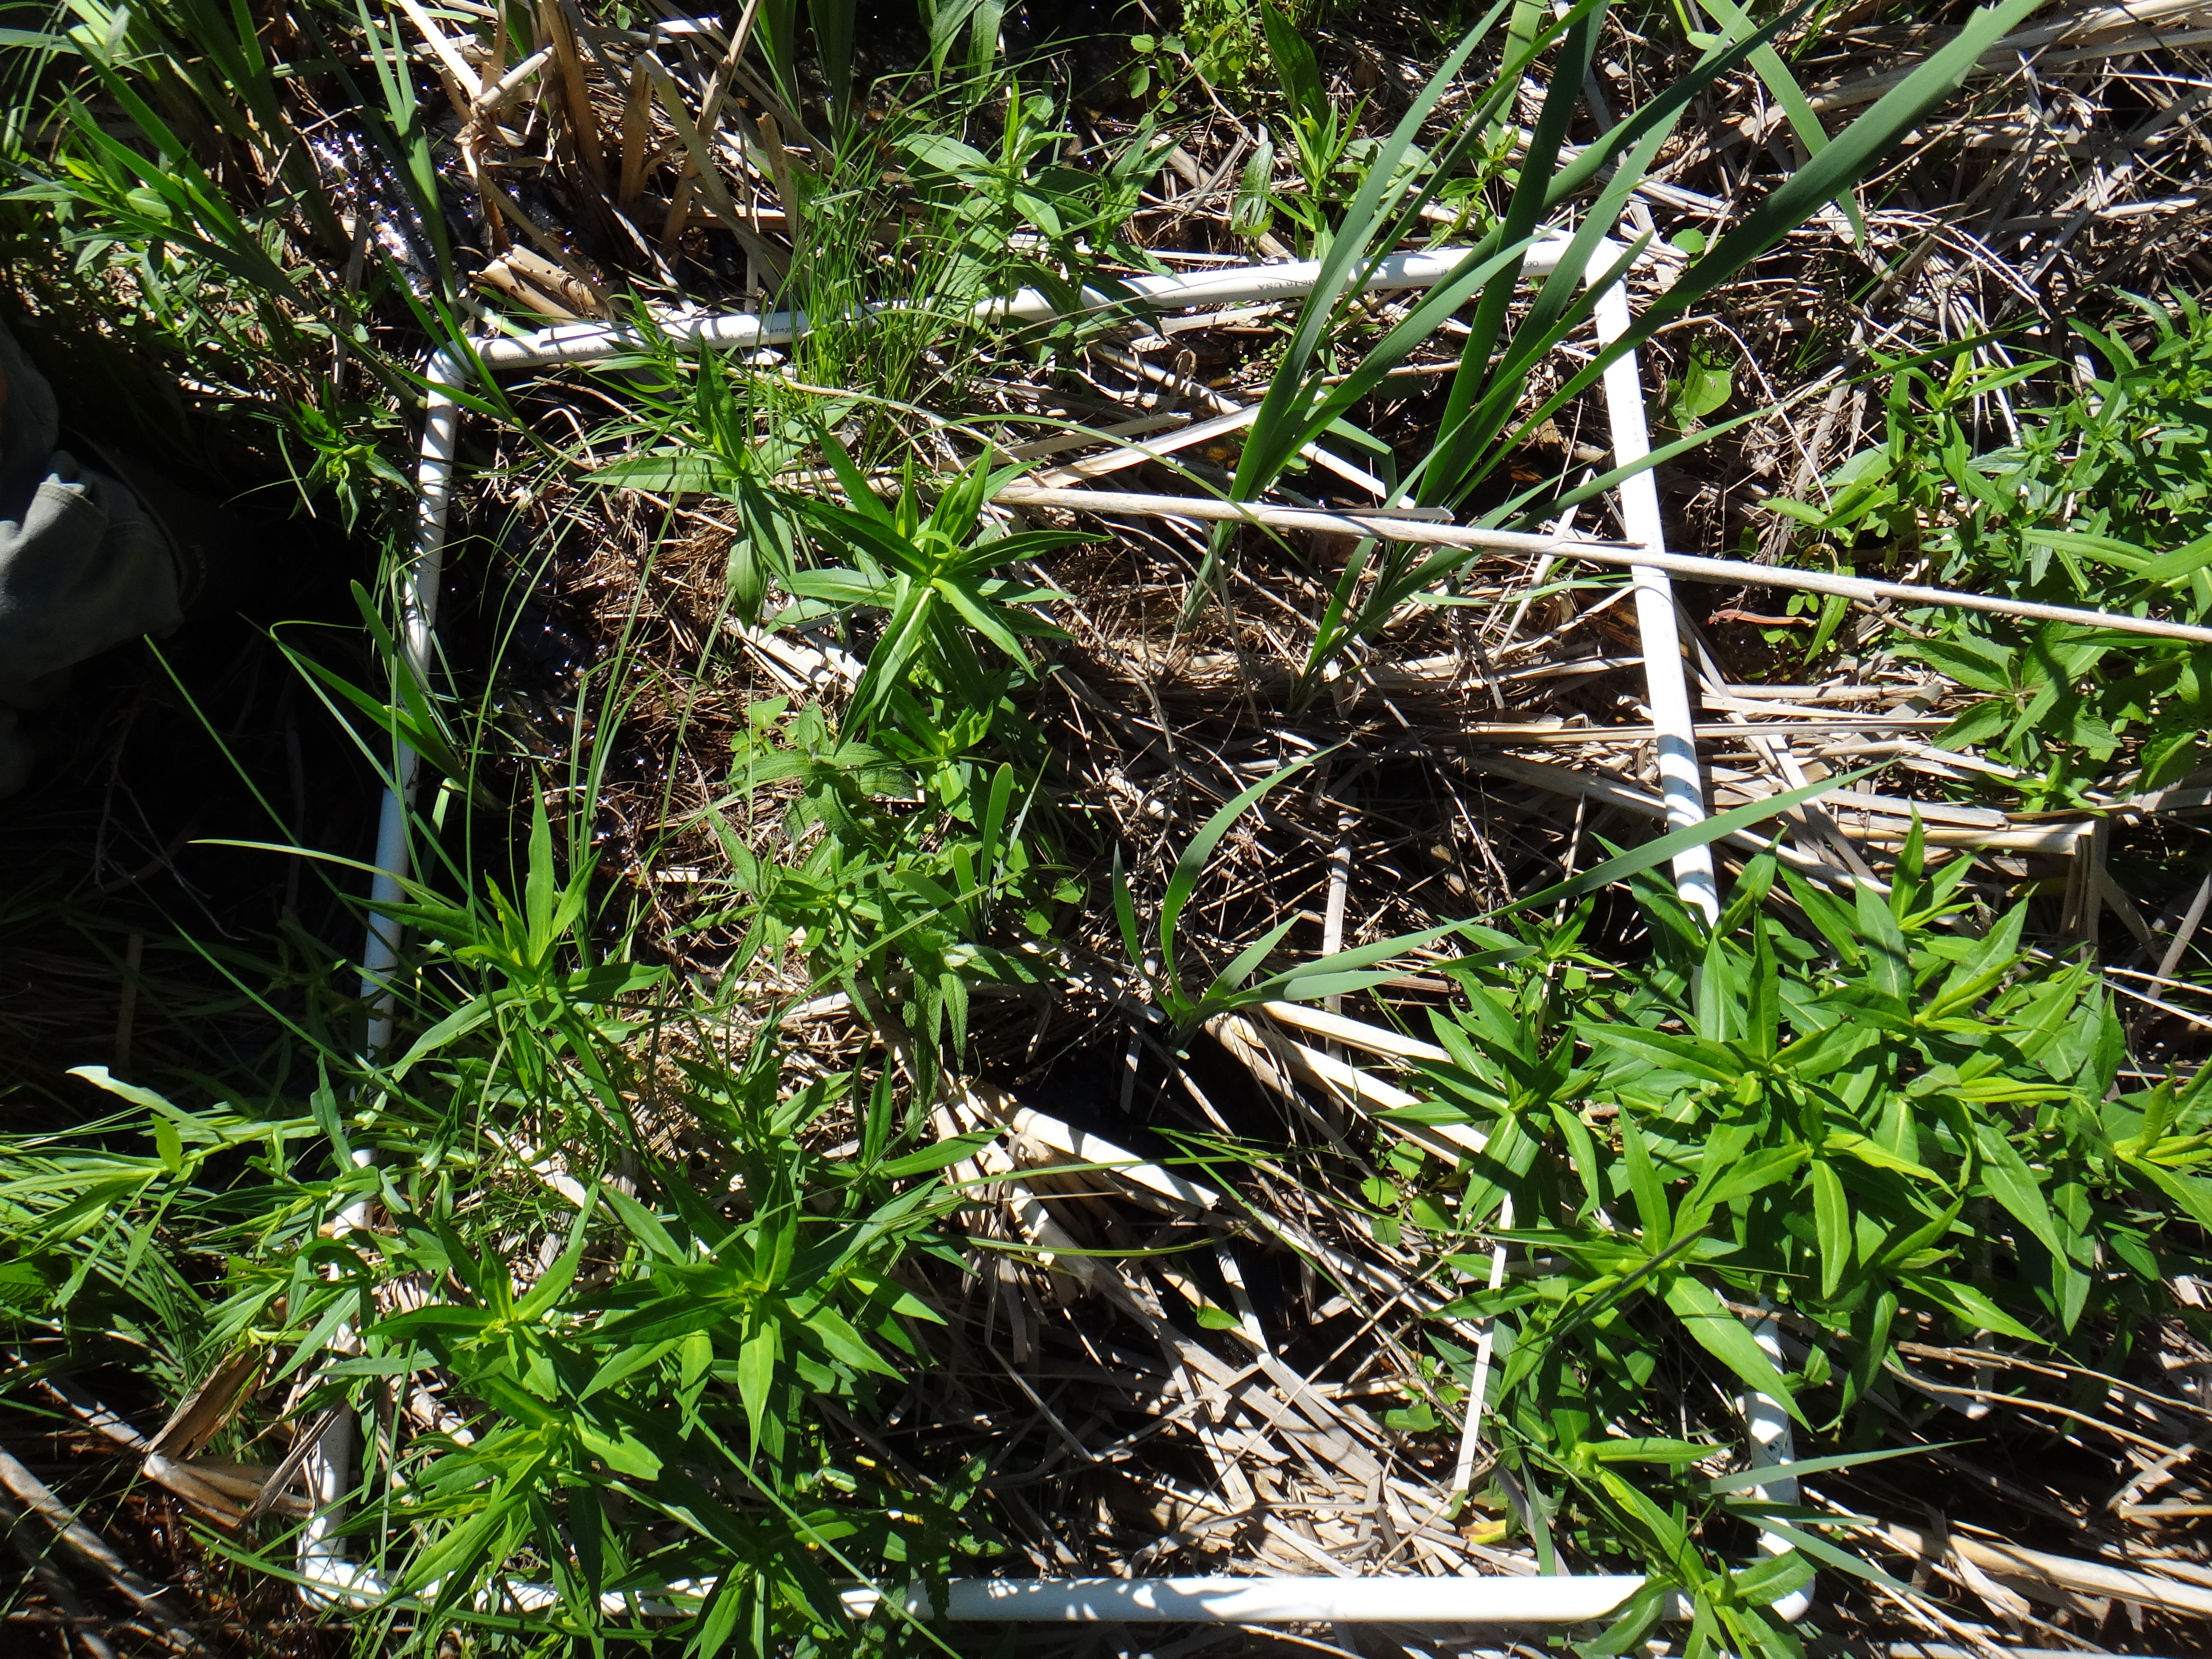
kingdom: Plantae
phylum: Tracheophyta
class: Liliopsida
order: Poales
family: Typhaceae
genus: Typha
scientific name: Typha latifolia
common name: Broadleaf cattail
